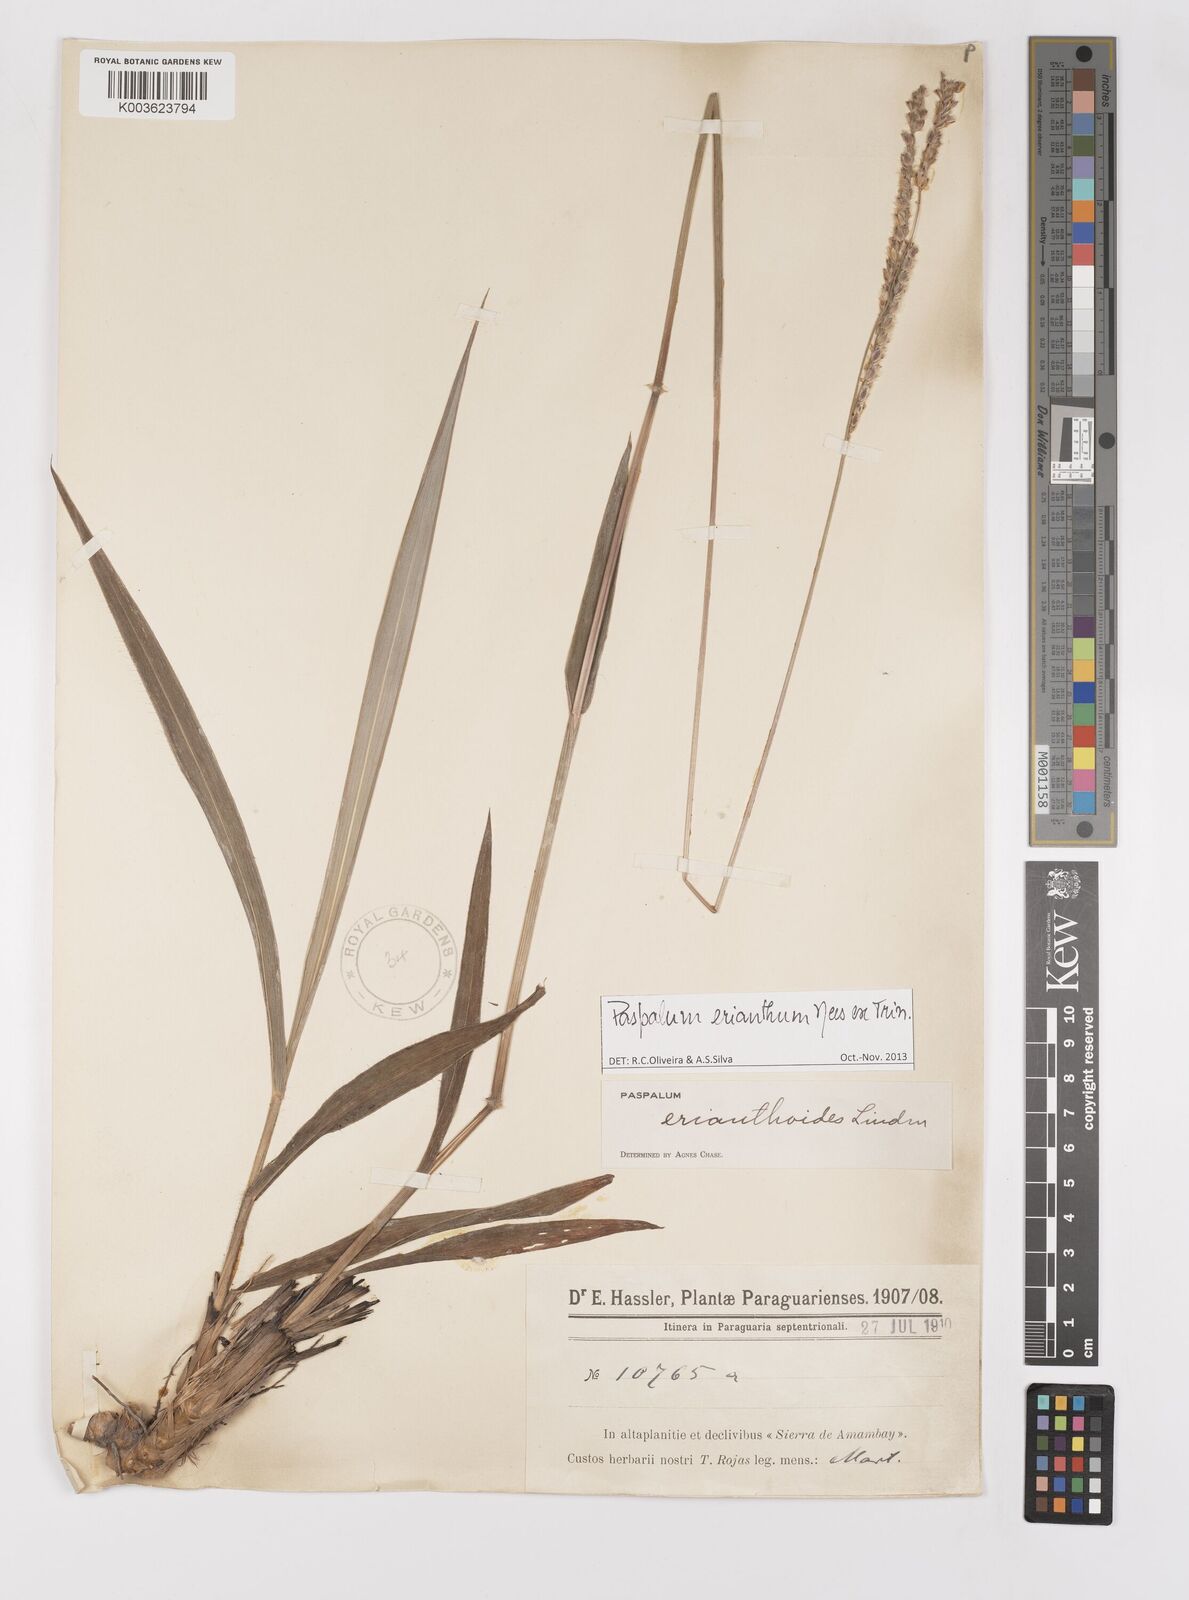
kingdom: Plantae
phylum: Tracheophyta
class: Liliopsida
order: Poales
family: Poaceae
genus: Paspalum
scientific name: Paspalum erianthum
